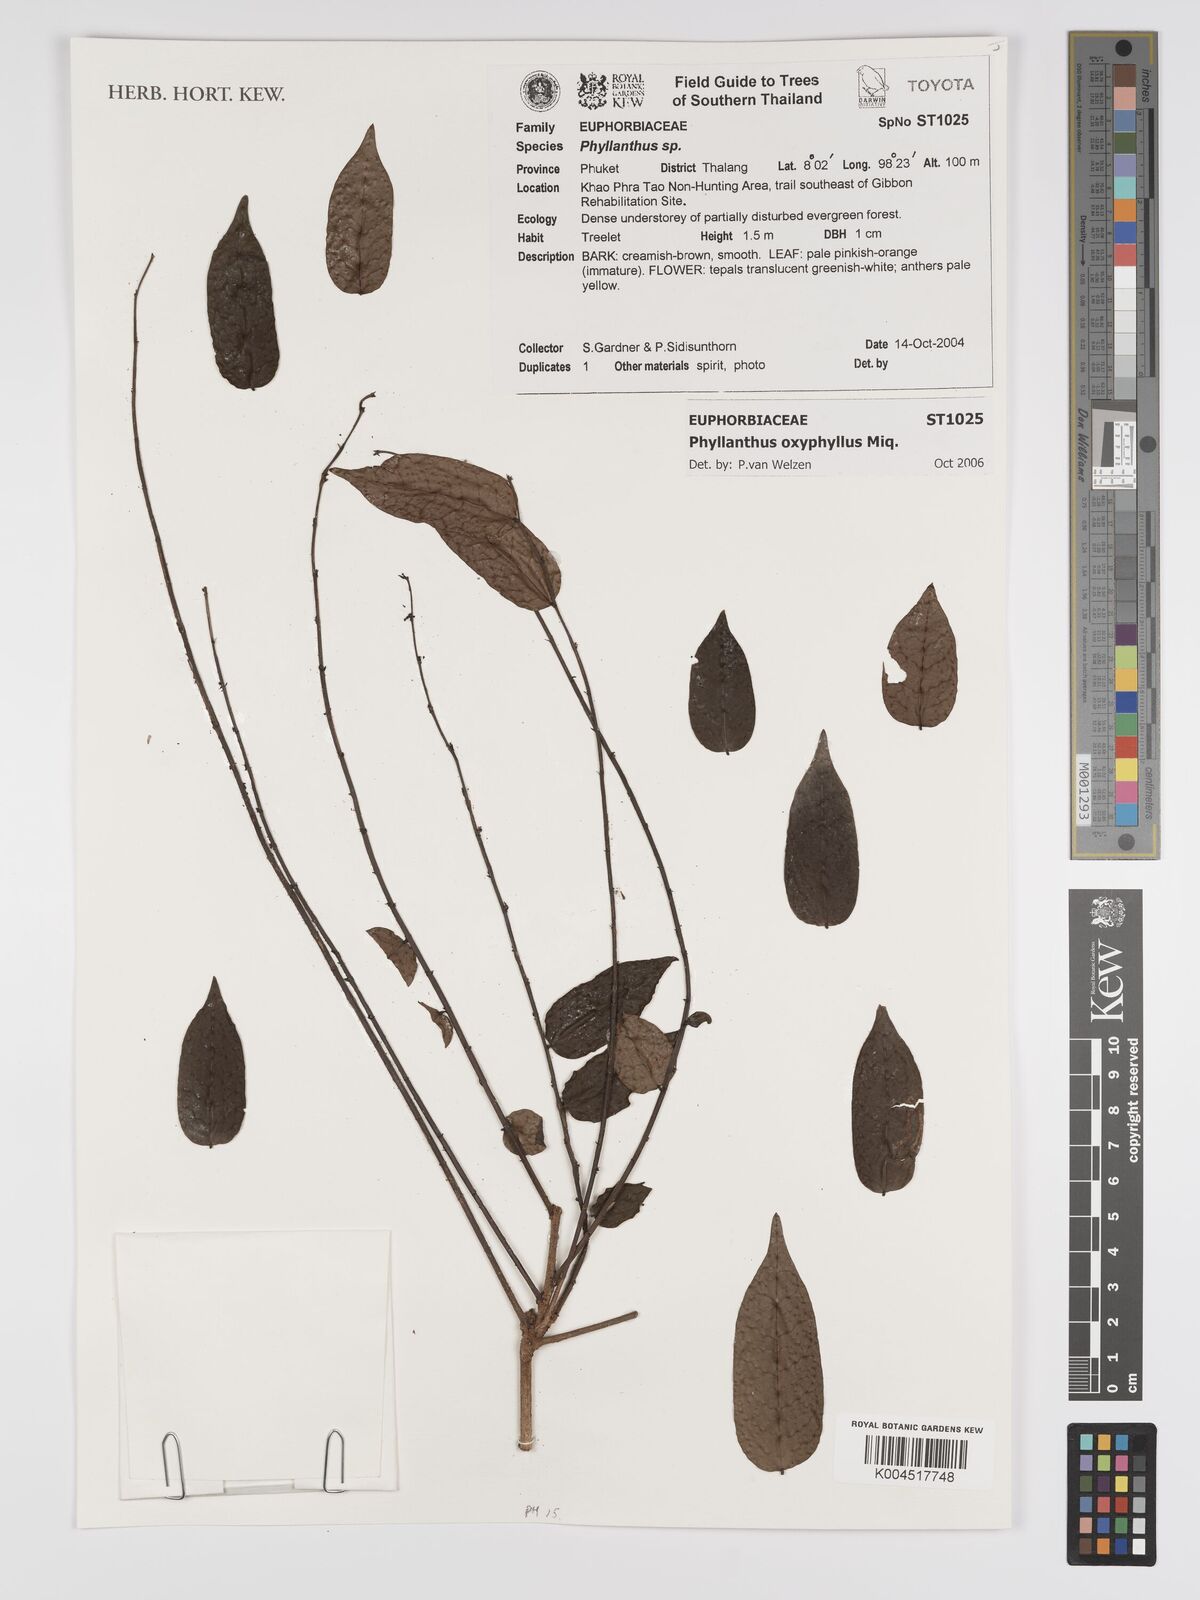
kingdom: Plantae
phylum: Tracheophyta
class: Magnoliopsida
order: Malpighiales
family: Phyllanthaceae
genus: Phyllanthus
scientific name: Phyllanthus
